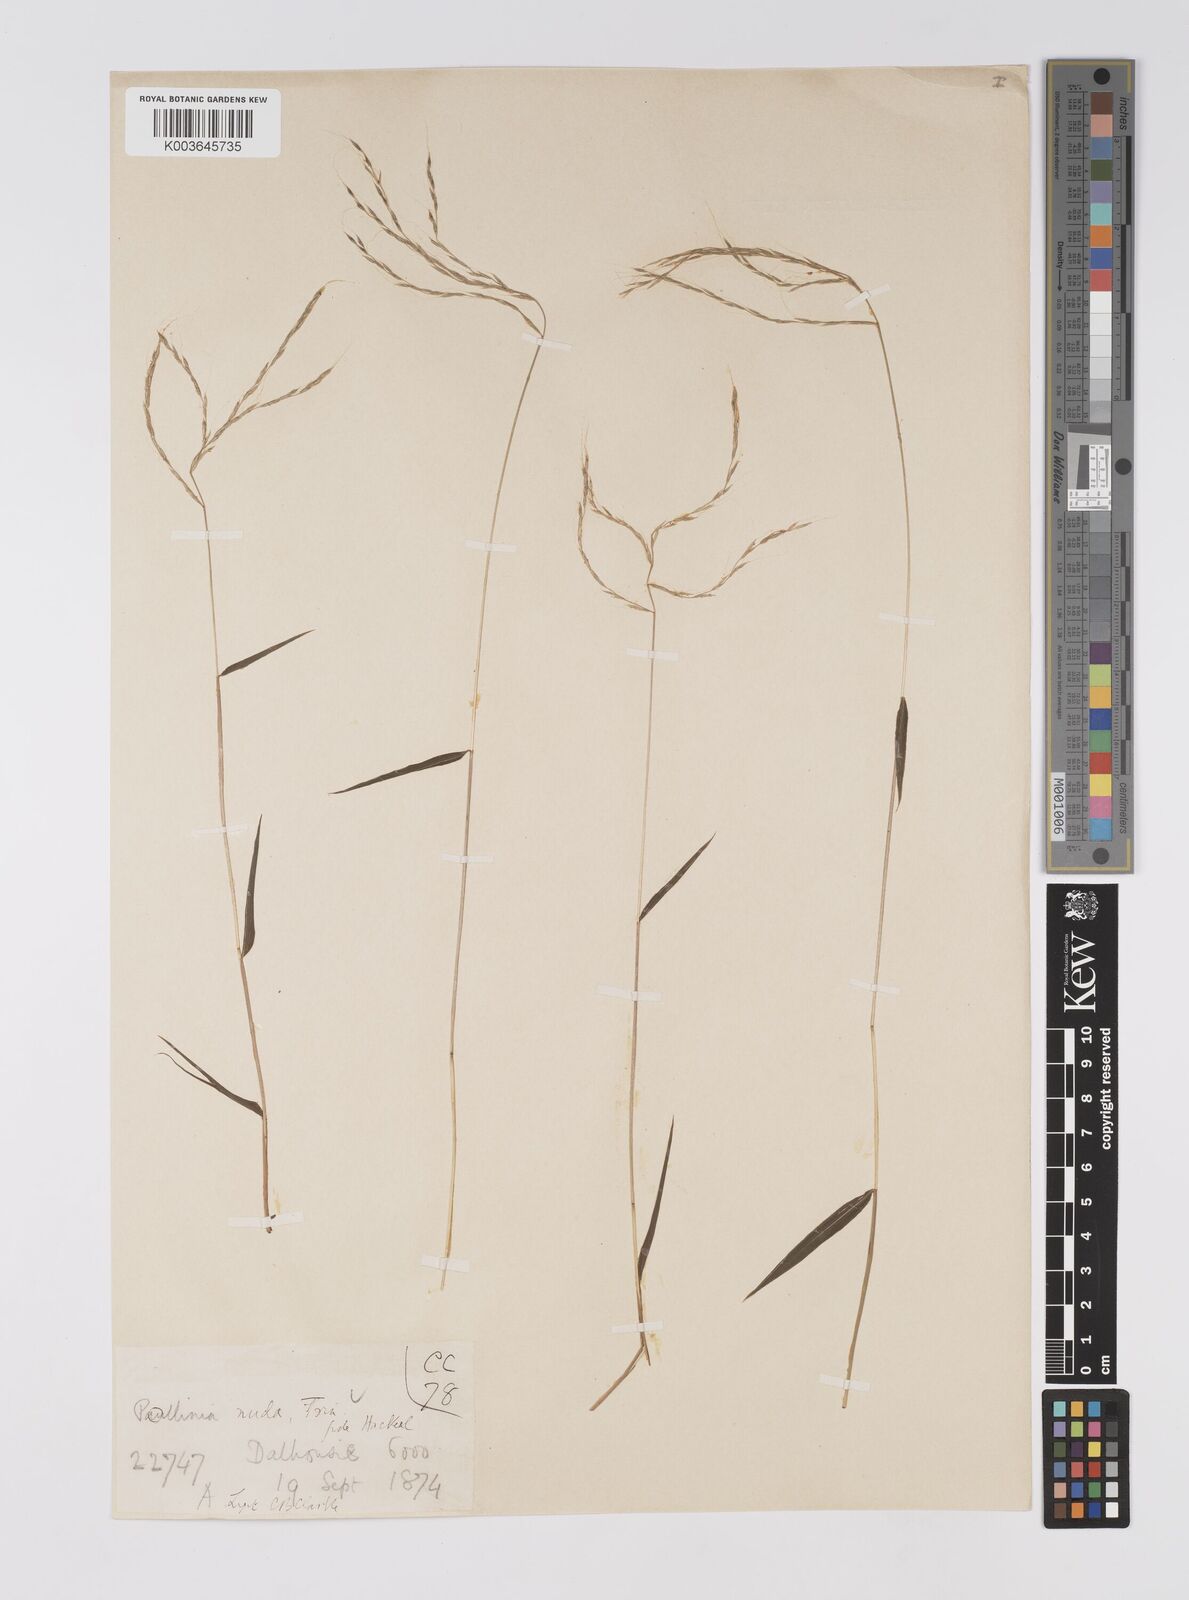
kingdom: Plantae
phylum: Tracheophyta
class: Liliopsida
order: Poales
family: Poaceae
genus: Microstegium
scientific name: Microstegium nudum
